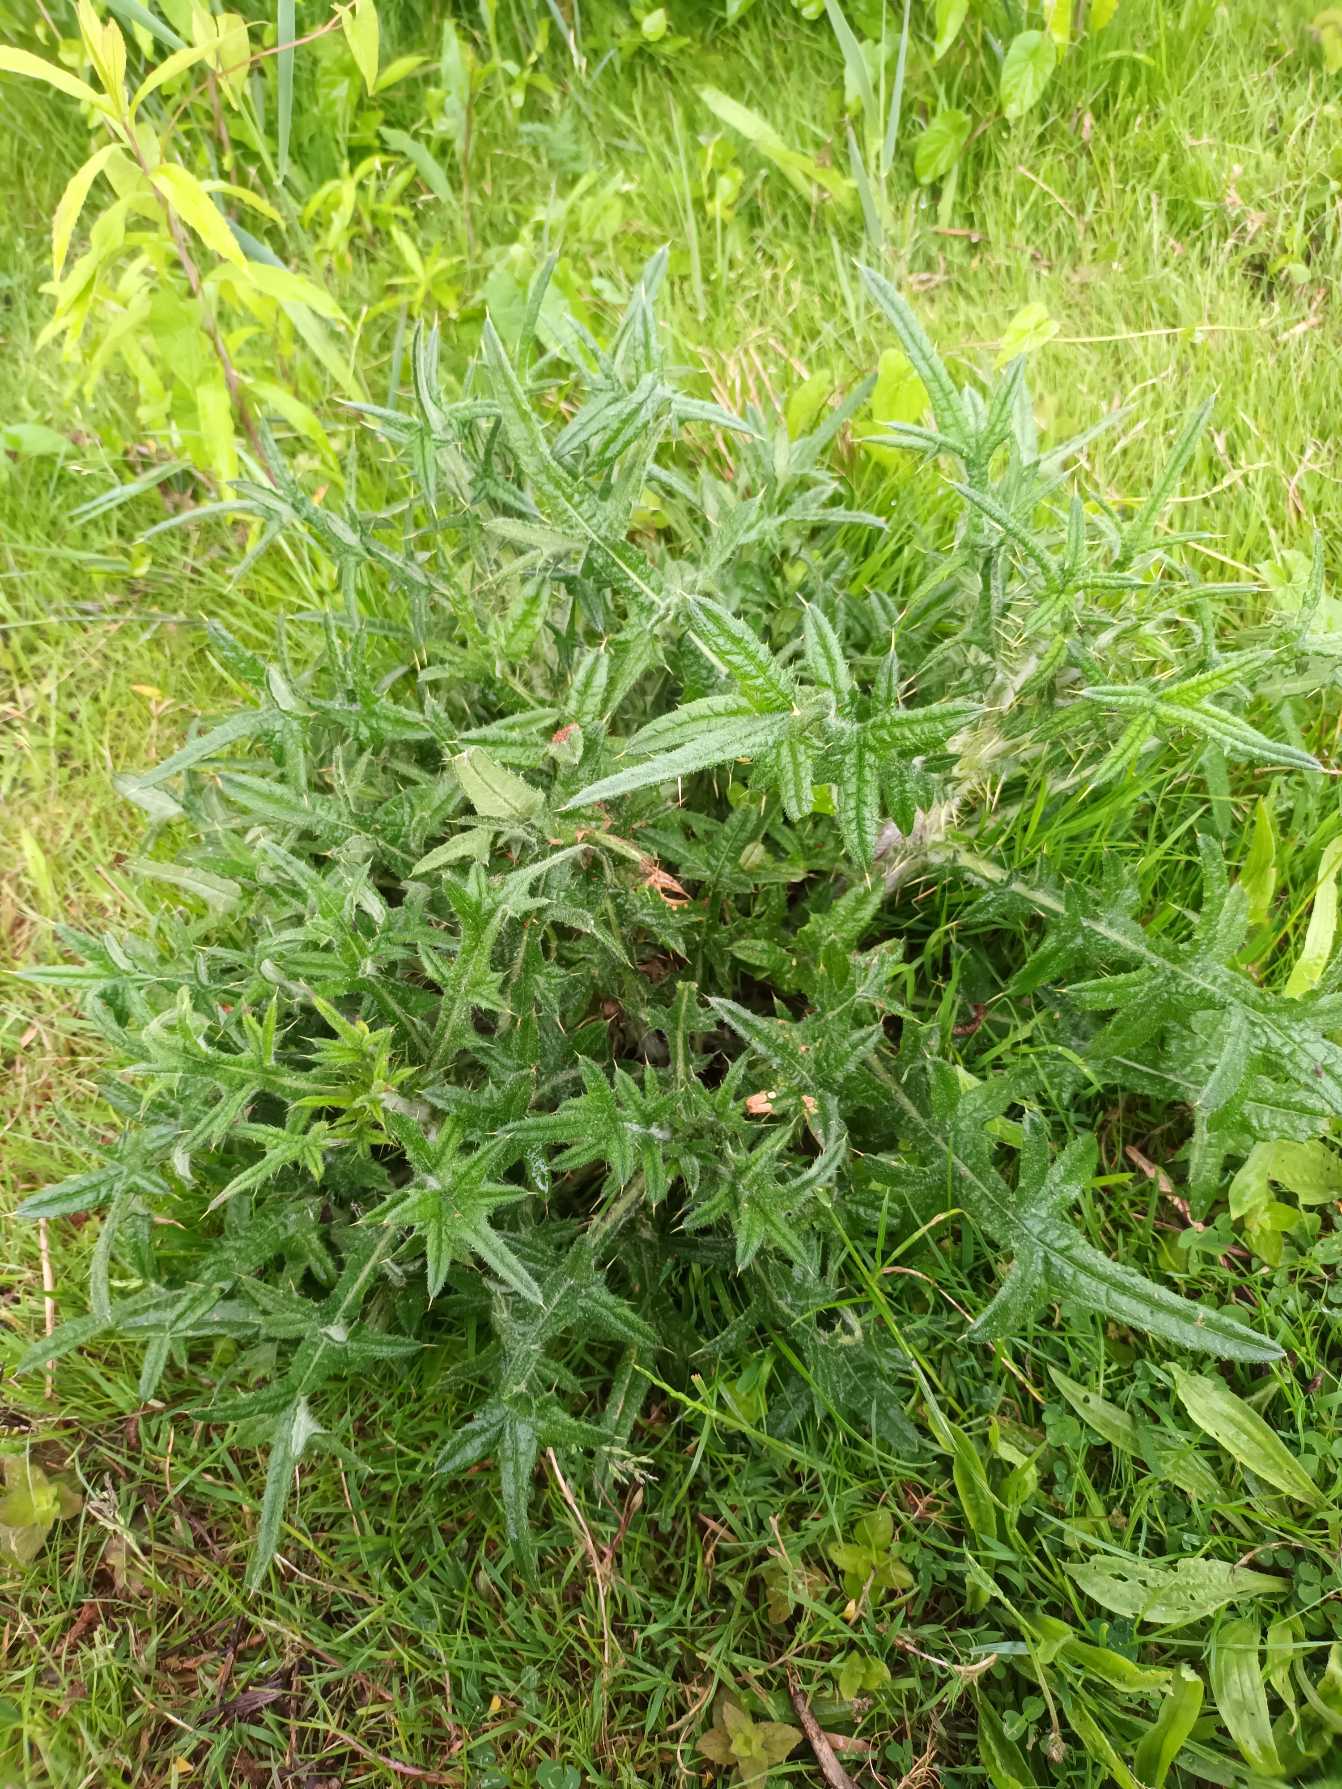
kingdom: Plantae
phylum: Tracheophyta
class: Magnoliopsida
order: Asterales
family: Asteraceae
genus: Cirsium
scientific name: Cirsium vulgare
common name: Horse-tidsel
